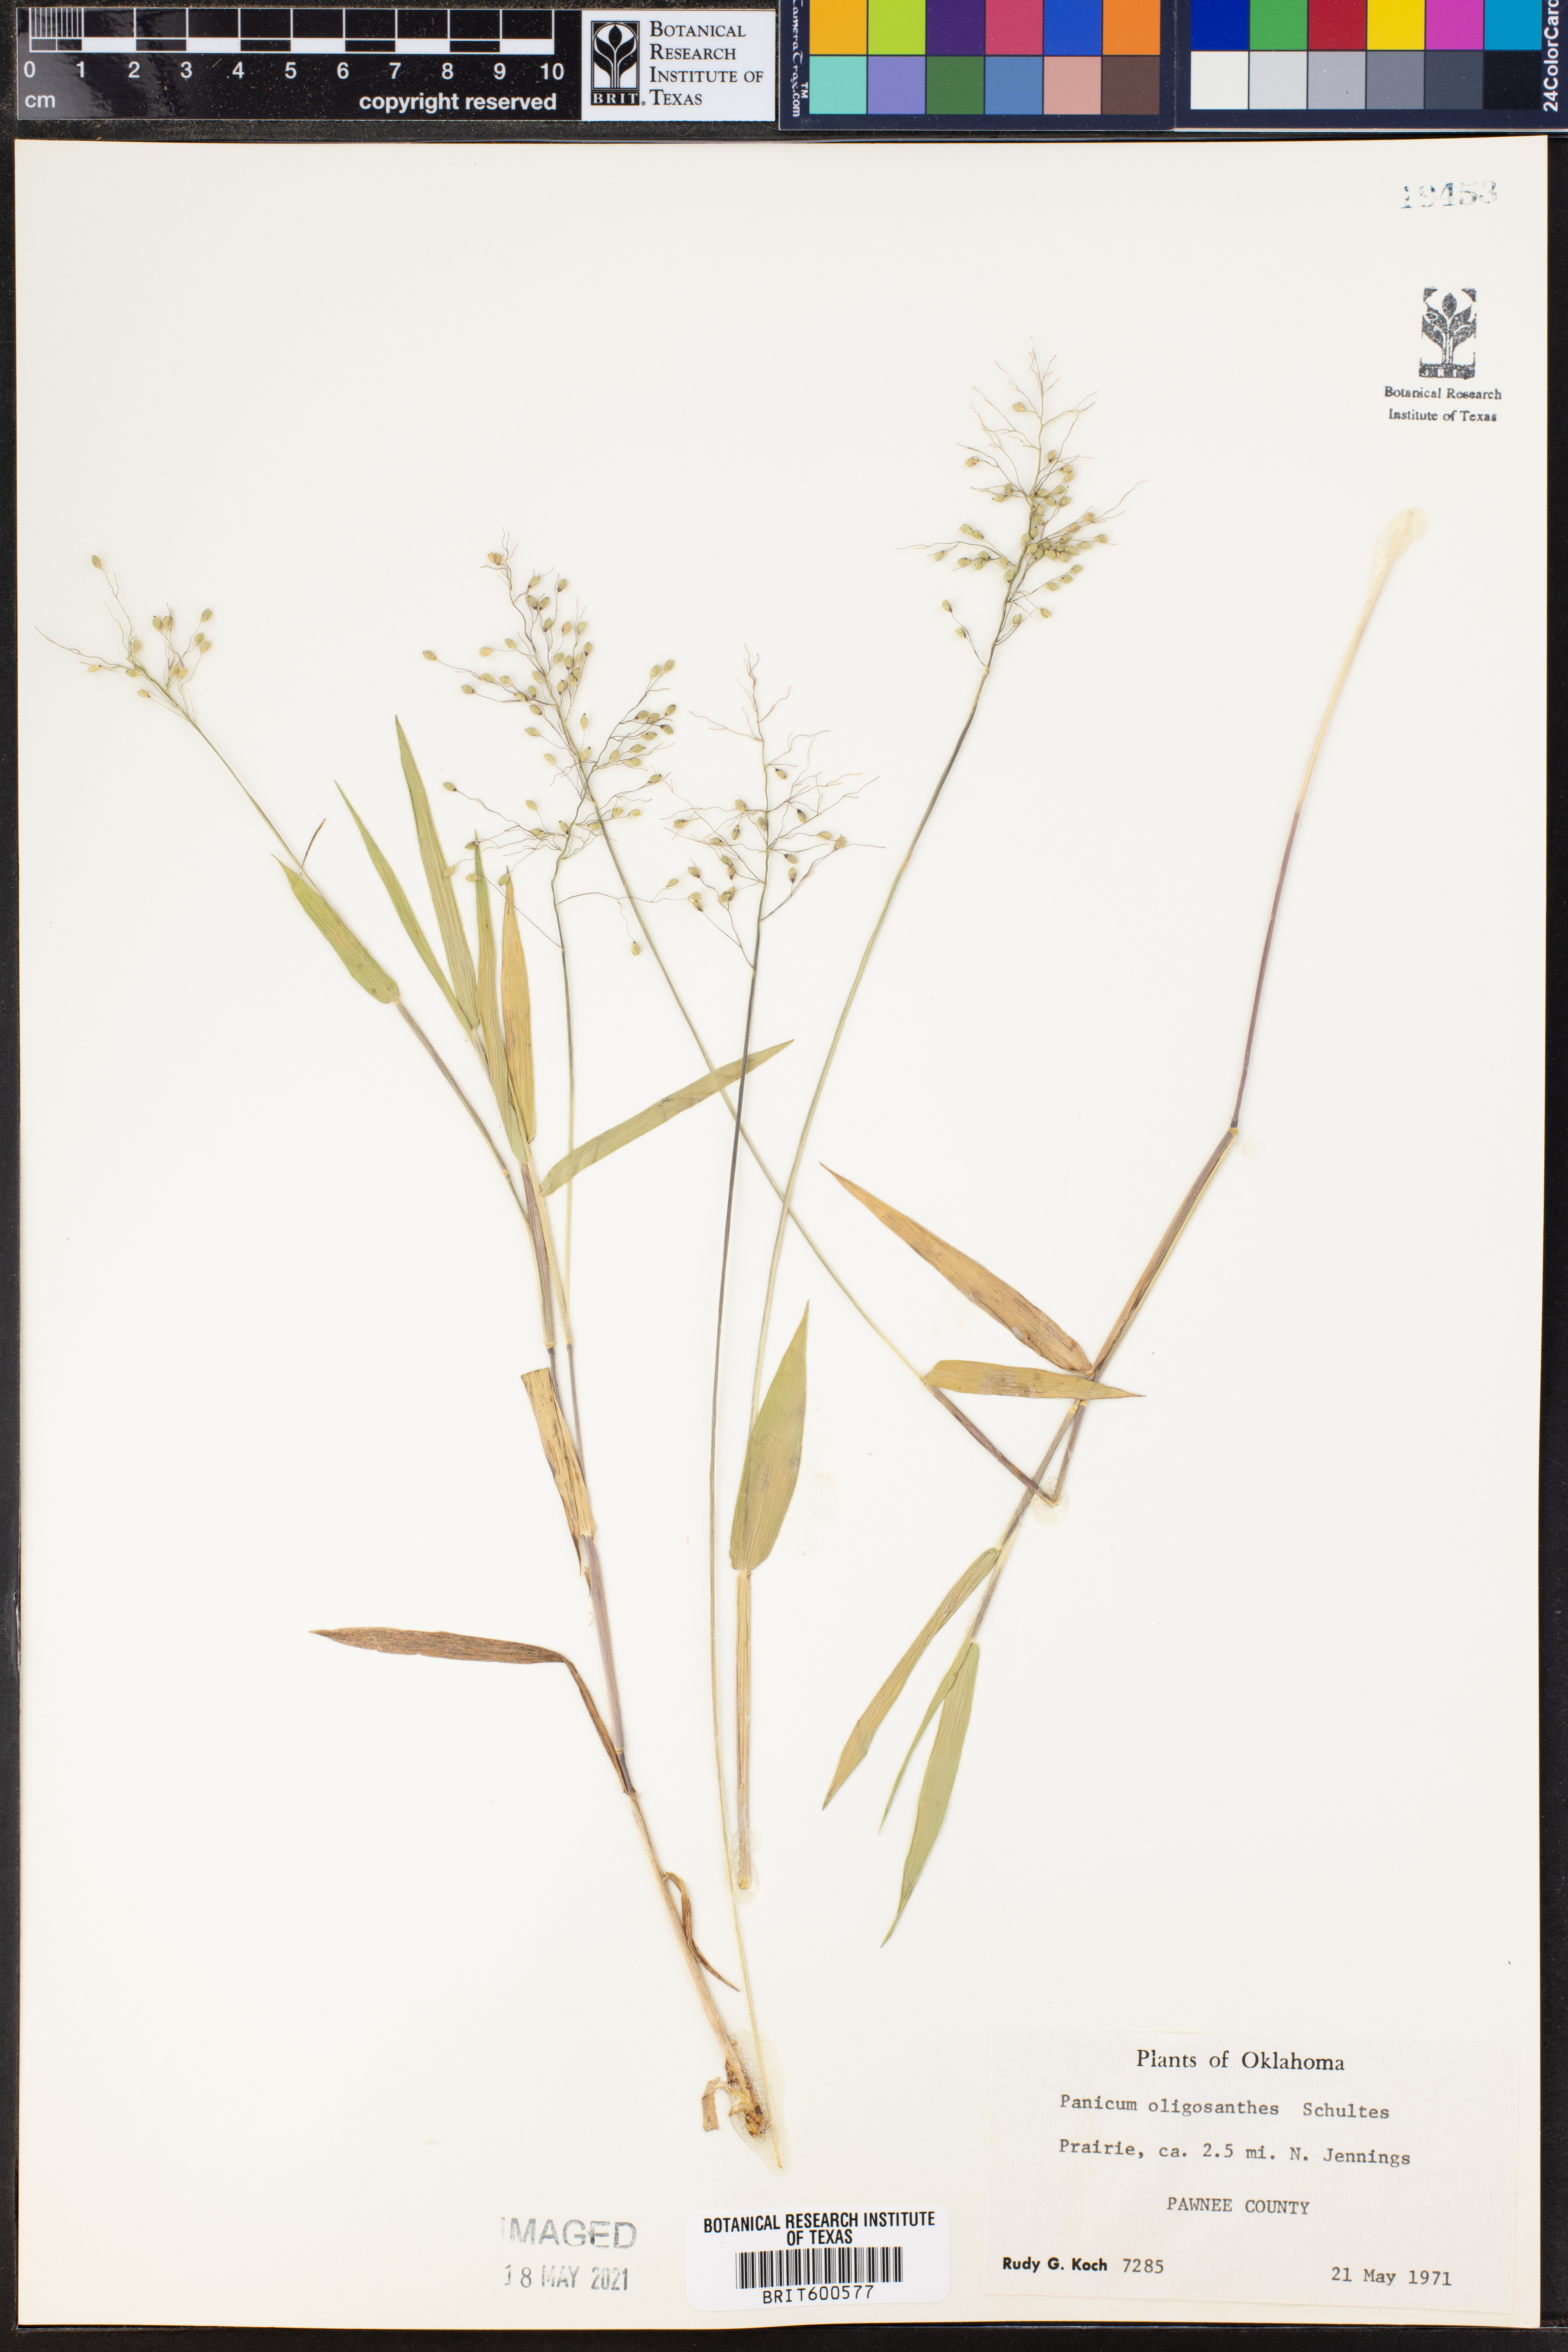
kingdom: Plantae
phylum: Tracheophyta
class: Liliopsida
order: Poales
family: Poaceae
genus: Dichanthelium
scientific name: Dichanthelium oligosanthes
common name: Few-anther obscuregrass
